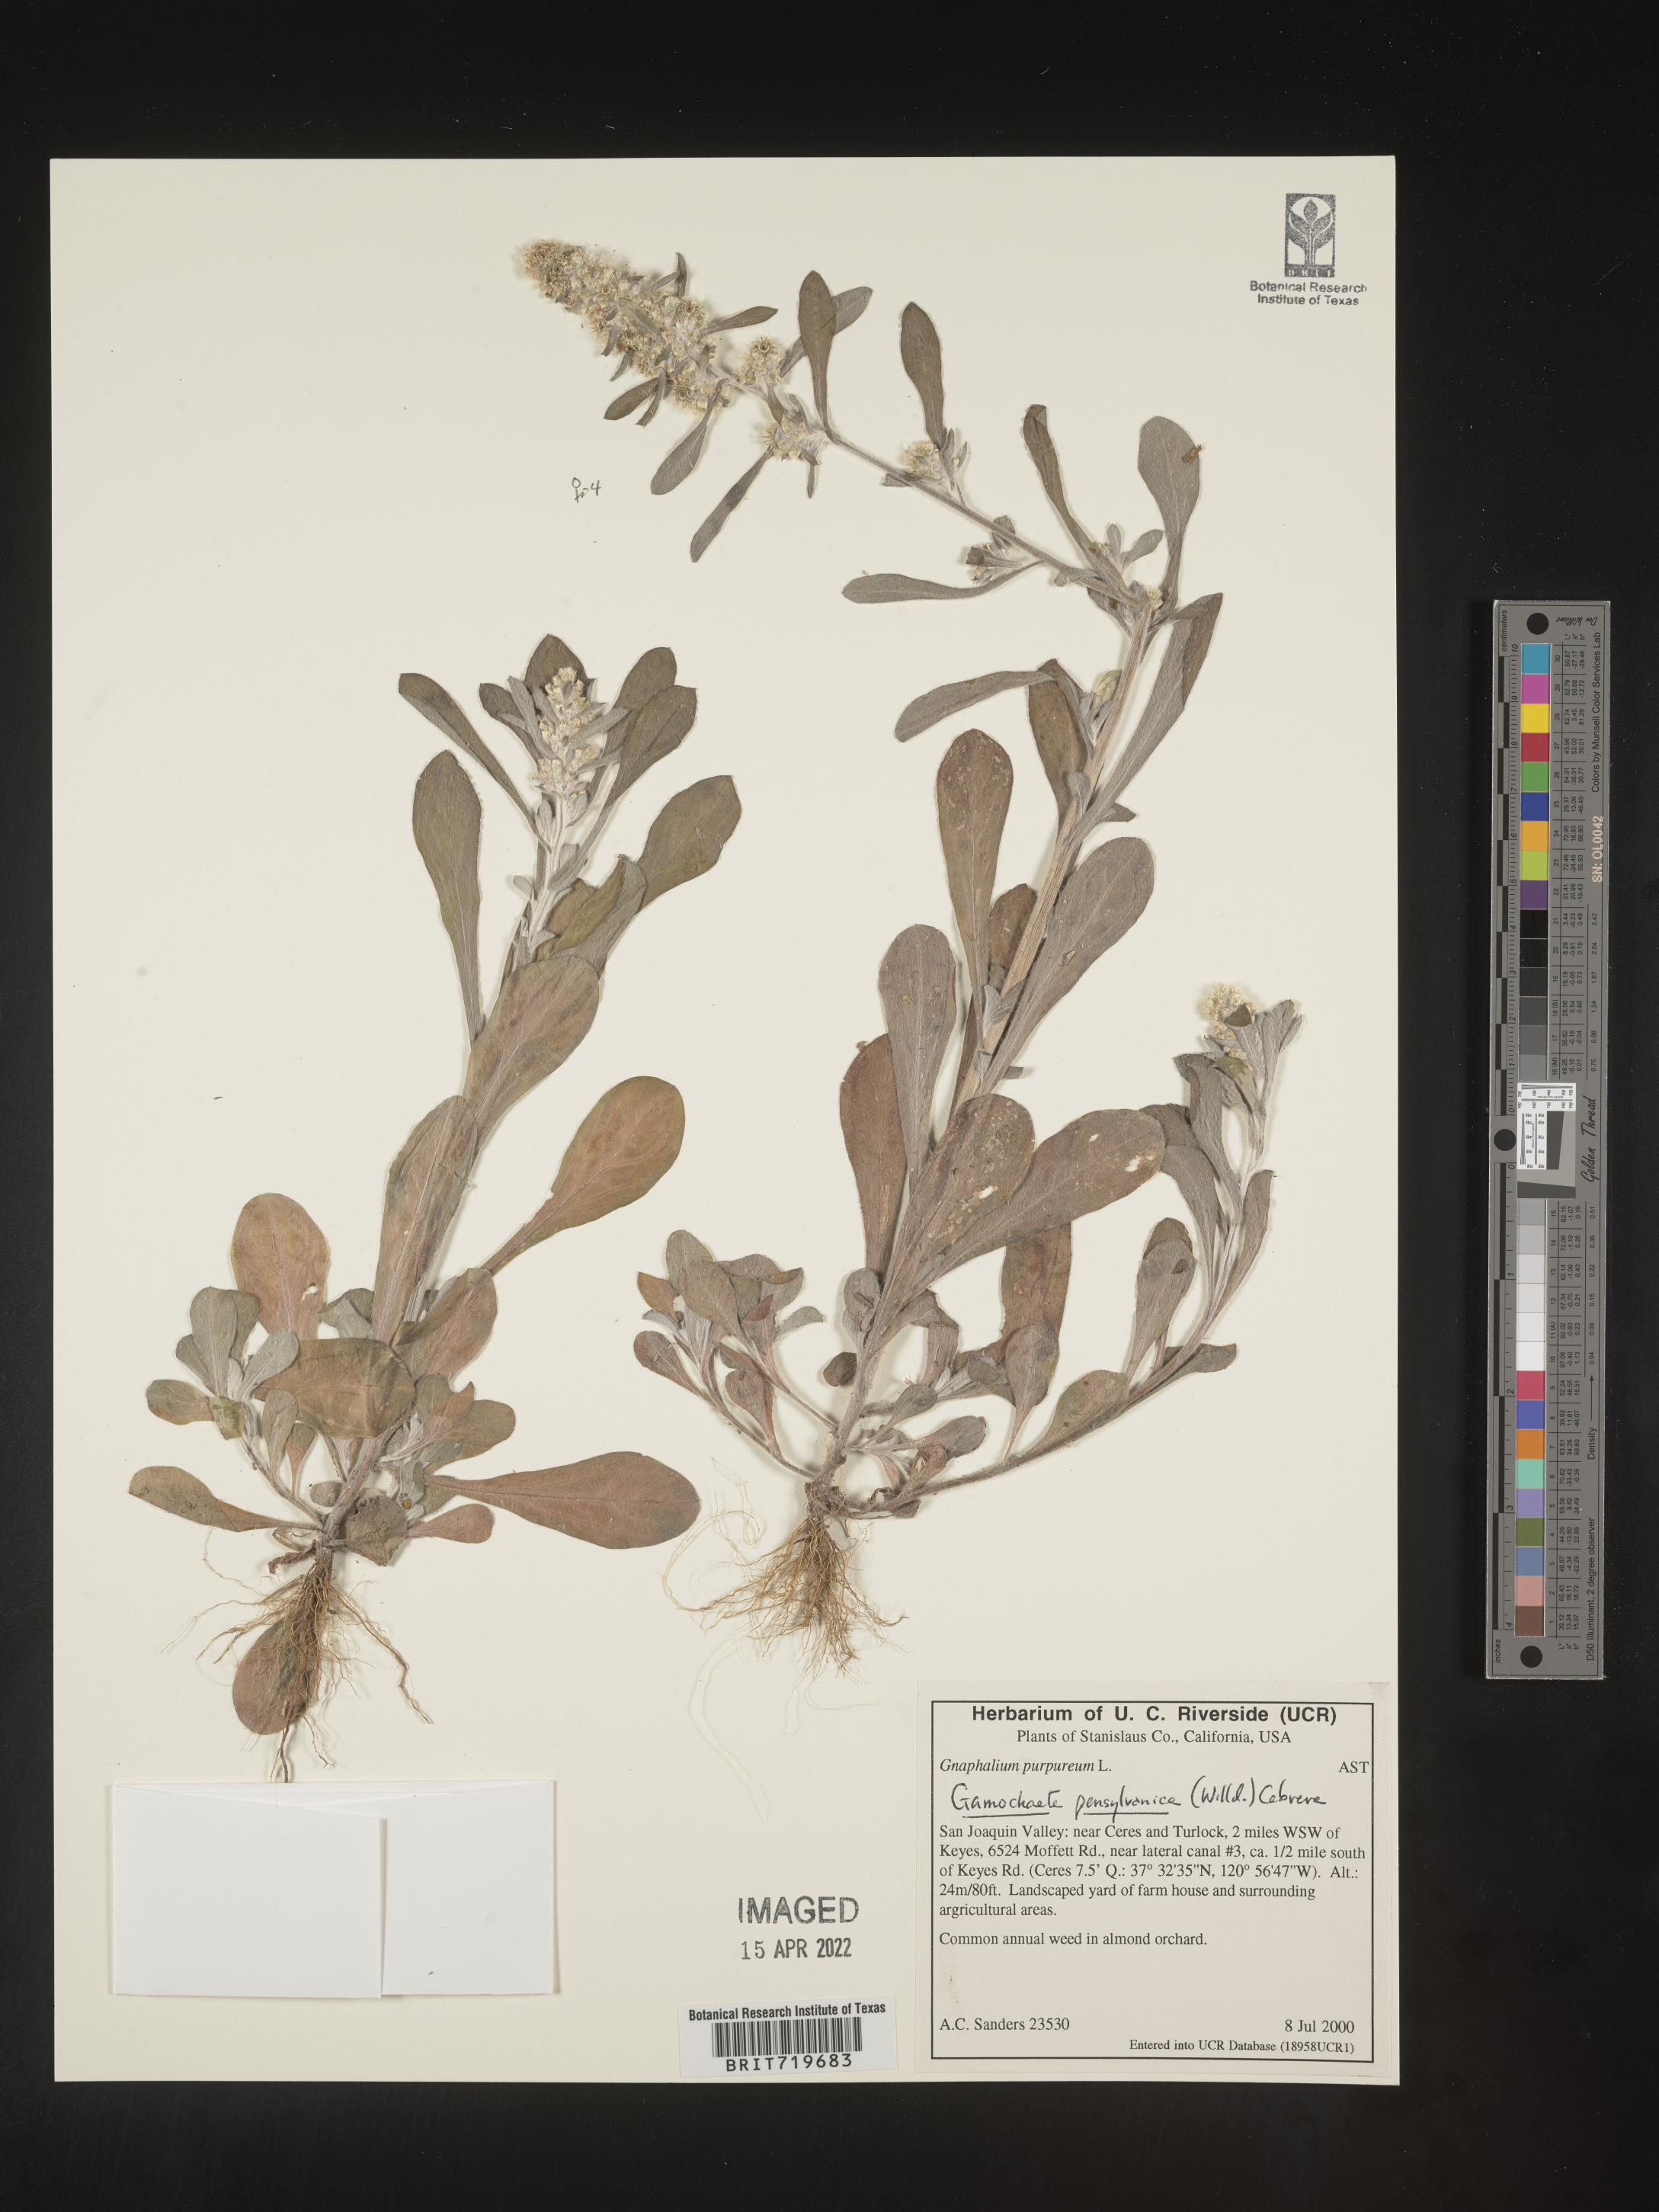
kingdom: Plantae
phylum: Tracheophyta
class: Magnoliopsida
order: Asterales
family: Asteraceae
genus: Gamochaeta
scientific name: Gamochaeta pensylvanica
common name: Pennsylvania everlasting
